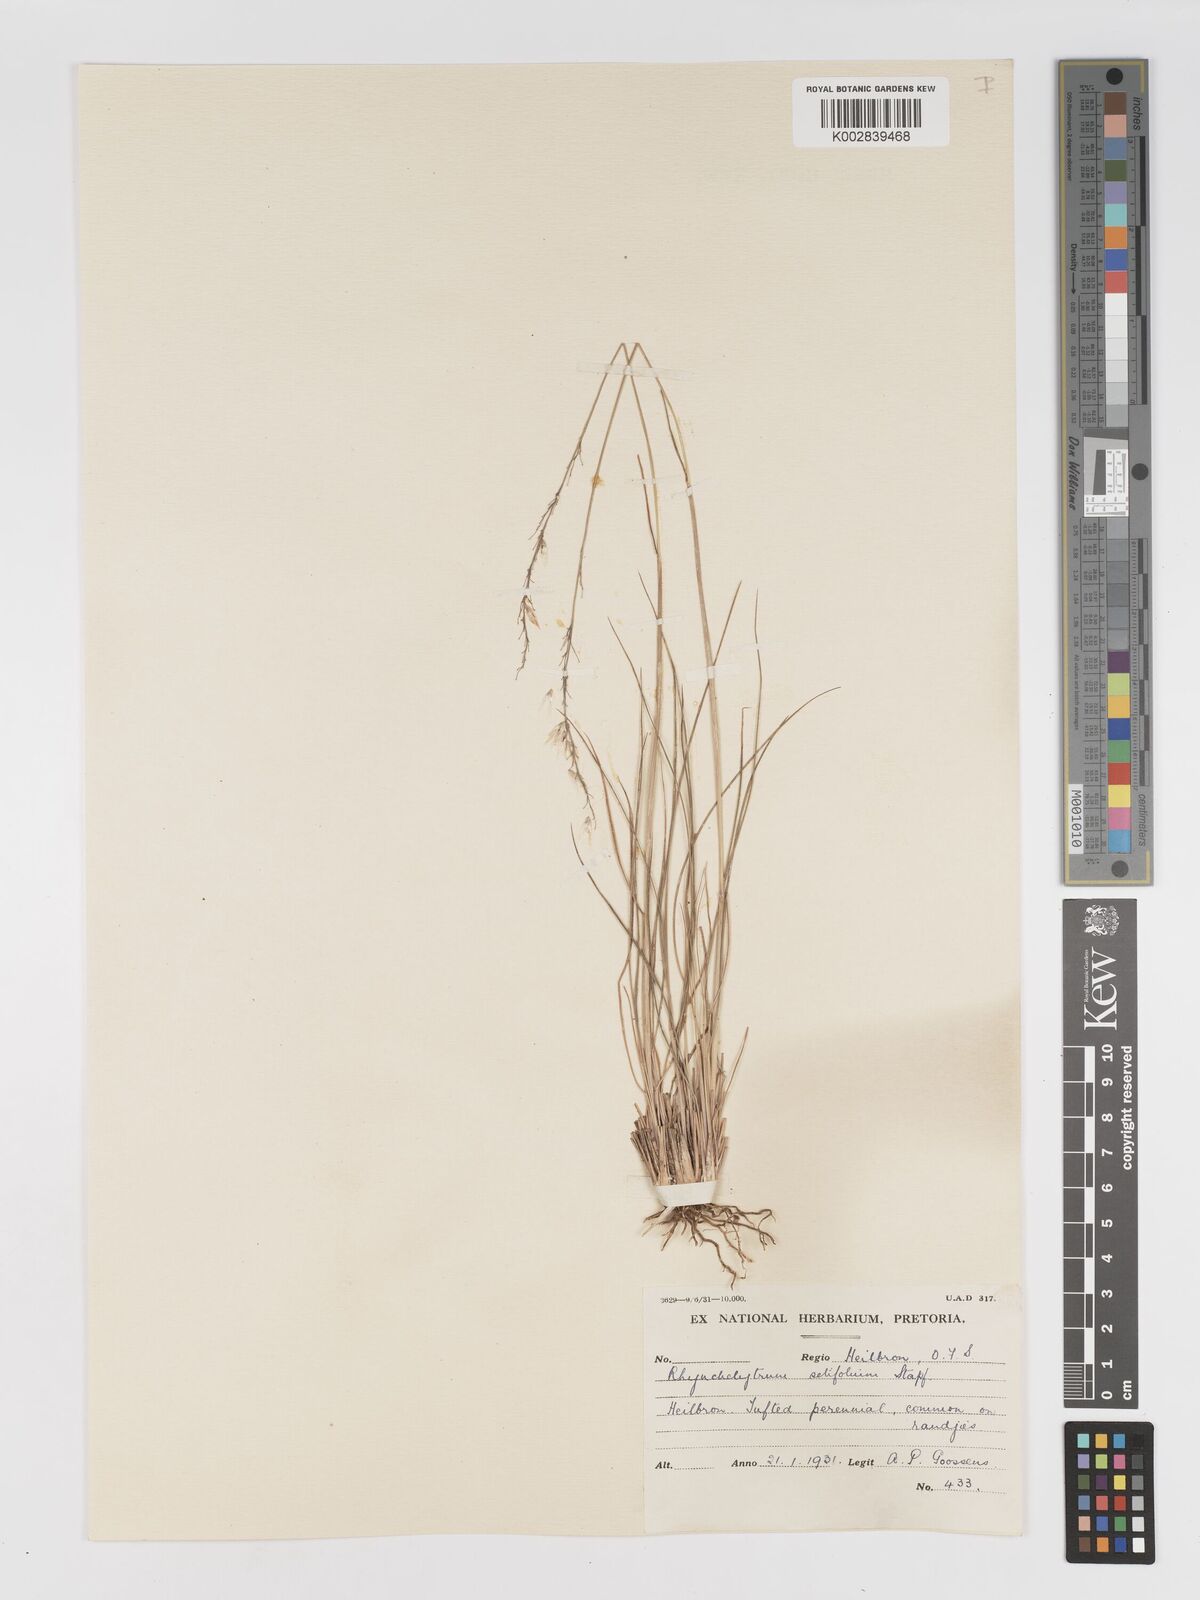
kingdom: Plantae
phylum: Tracheophyta
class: Liliopsida
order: Poales
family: Poaceae
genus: Melinis
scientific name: Melinis nerviglumis
